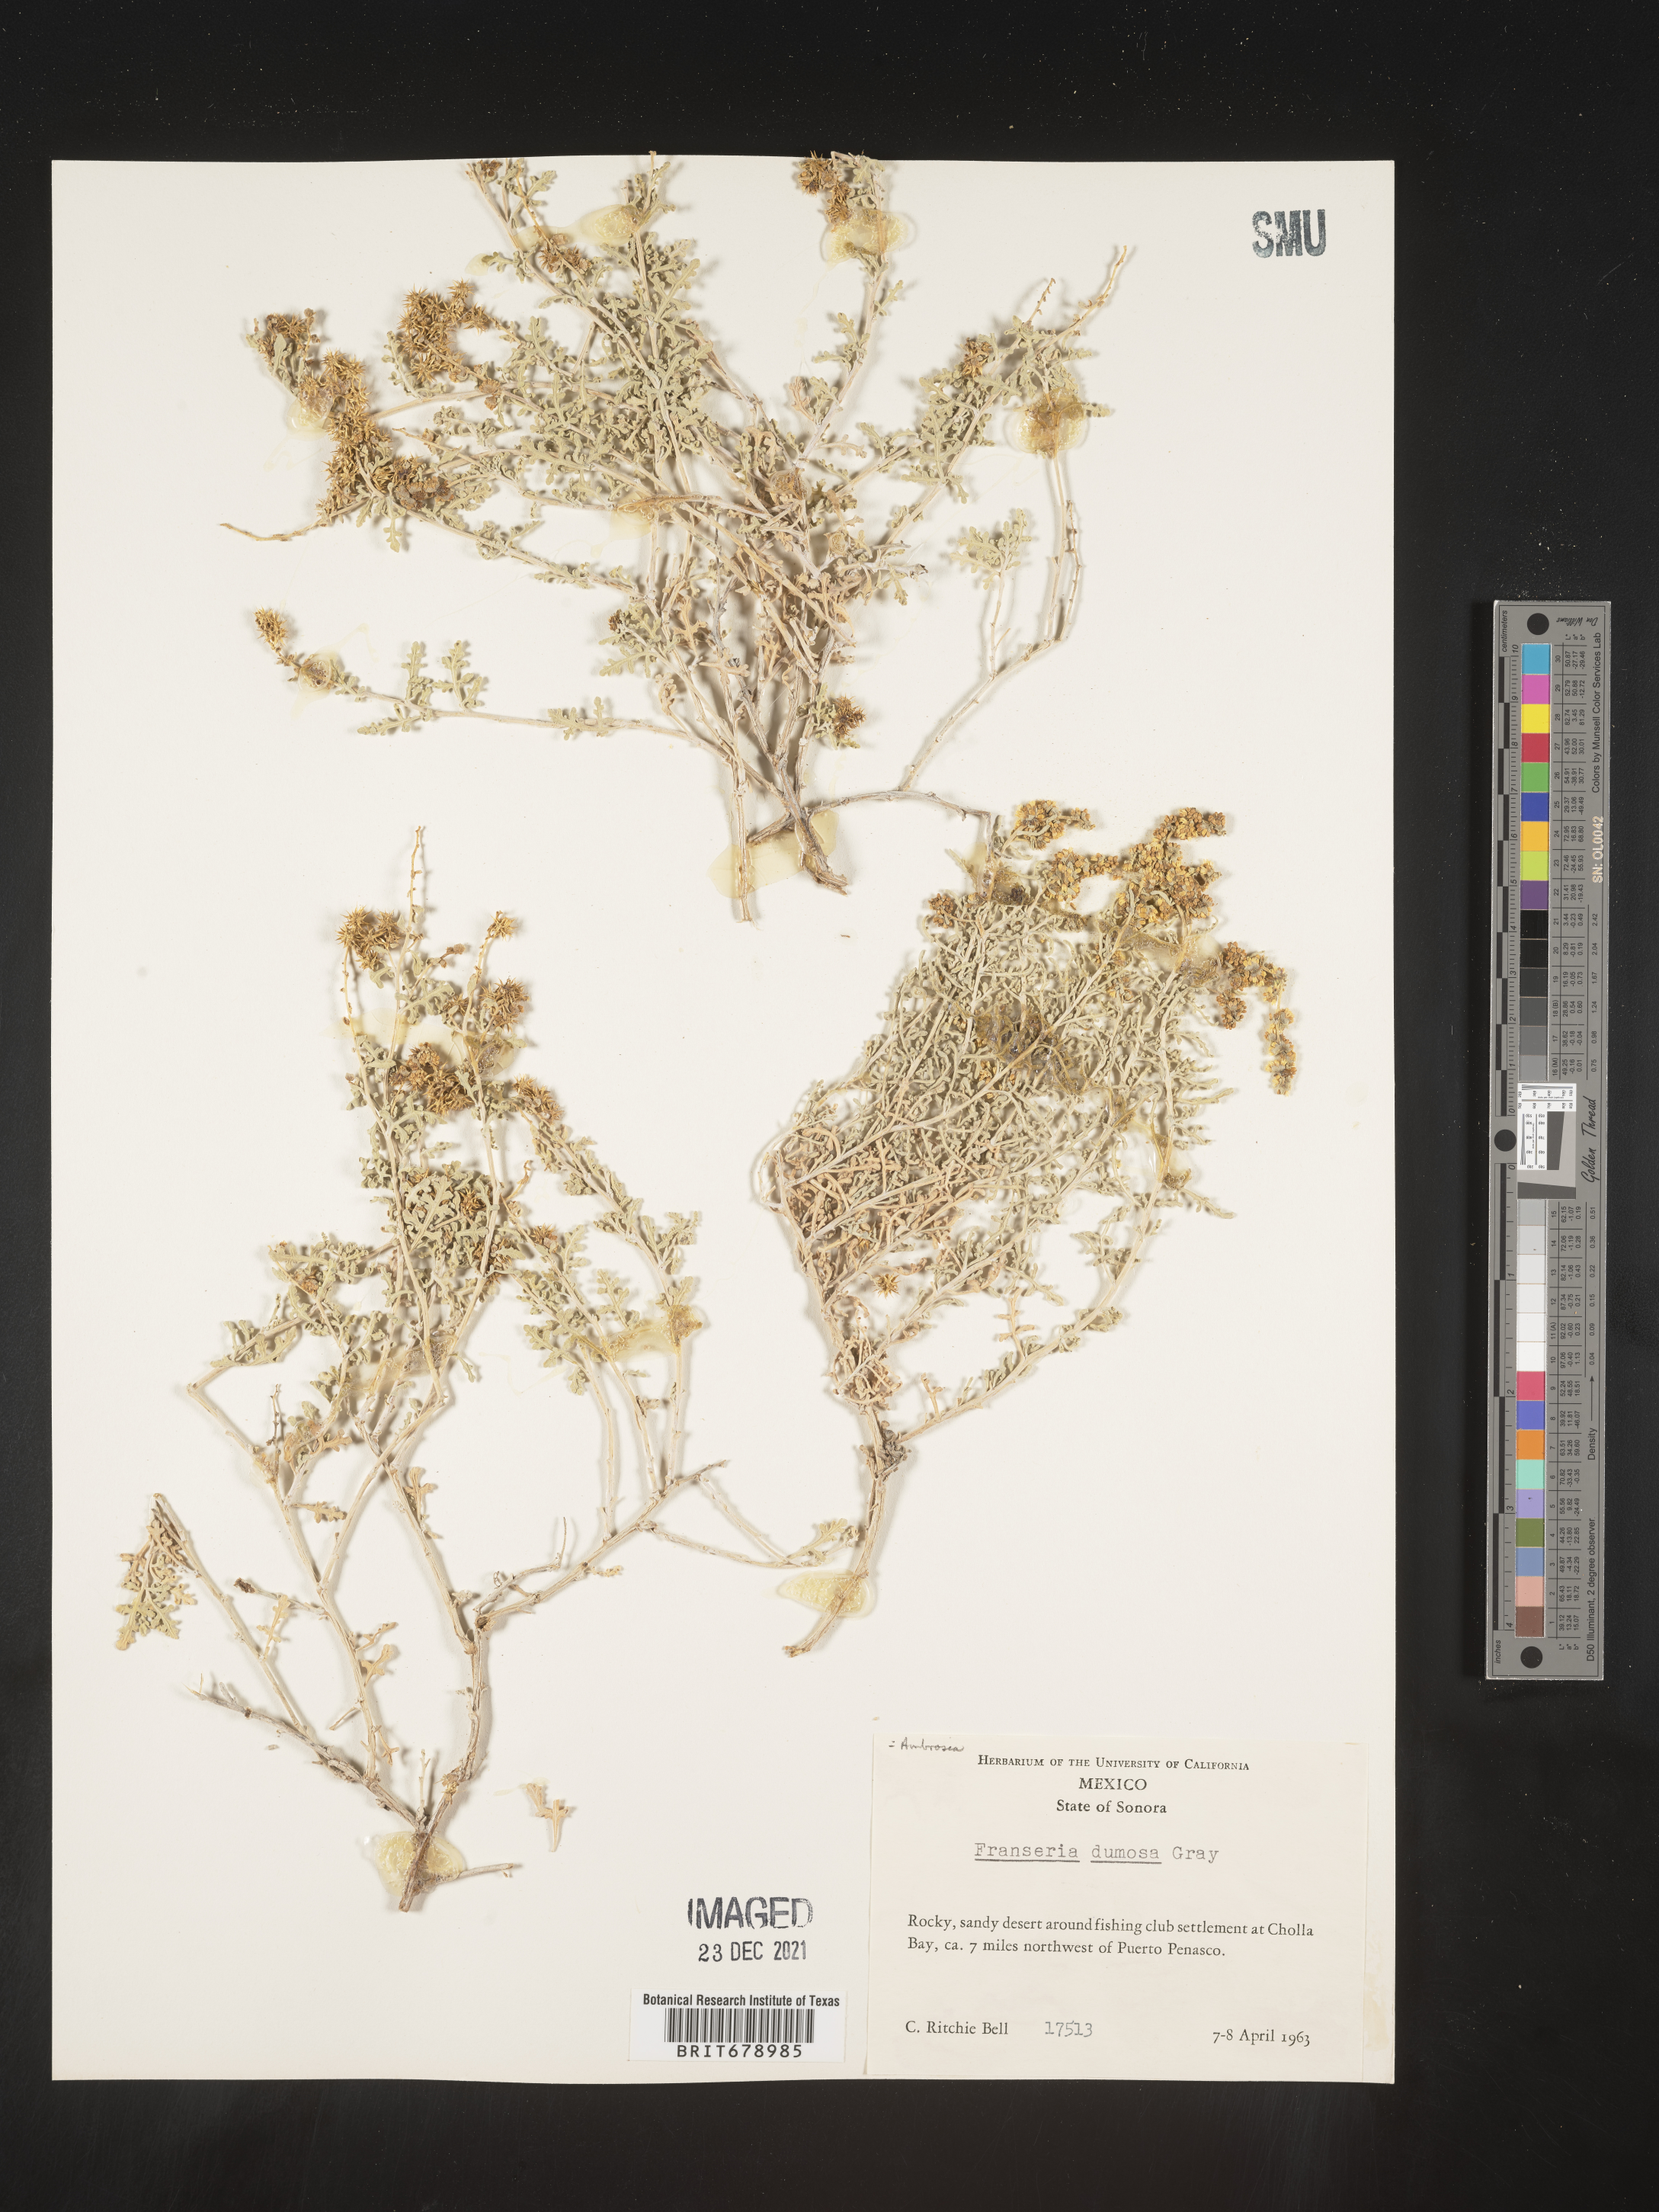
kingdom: Plantae
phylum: Tracheophyta
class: Magnoliopsida
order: Asterales
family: Asteraceae
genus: Ambrosia
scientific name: Ambrosia
